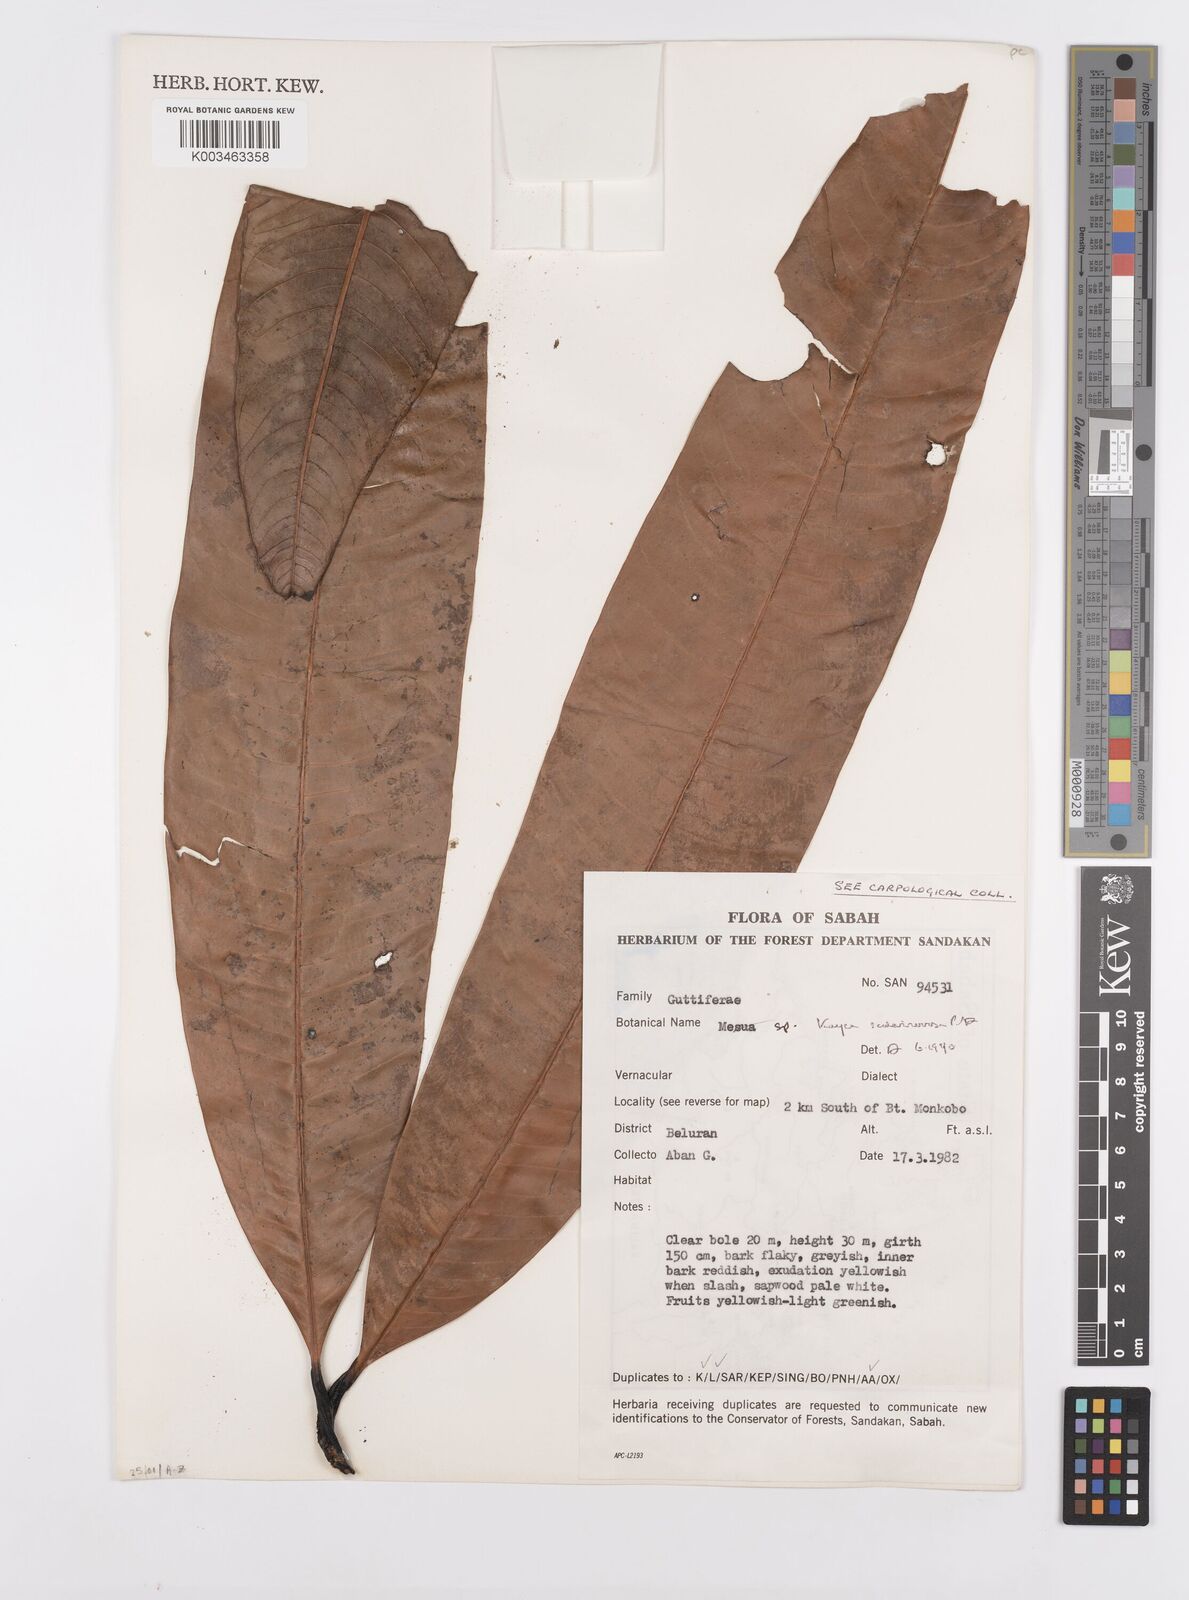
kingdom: Plantae
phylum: Tracheophyta
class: Magnoliopsida
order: Malpighiales
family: Calophyllaceae
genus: Kayea
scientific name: Kayea scalarinervosa
